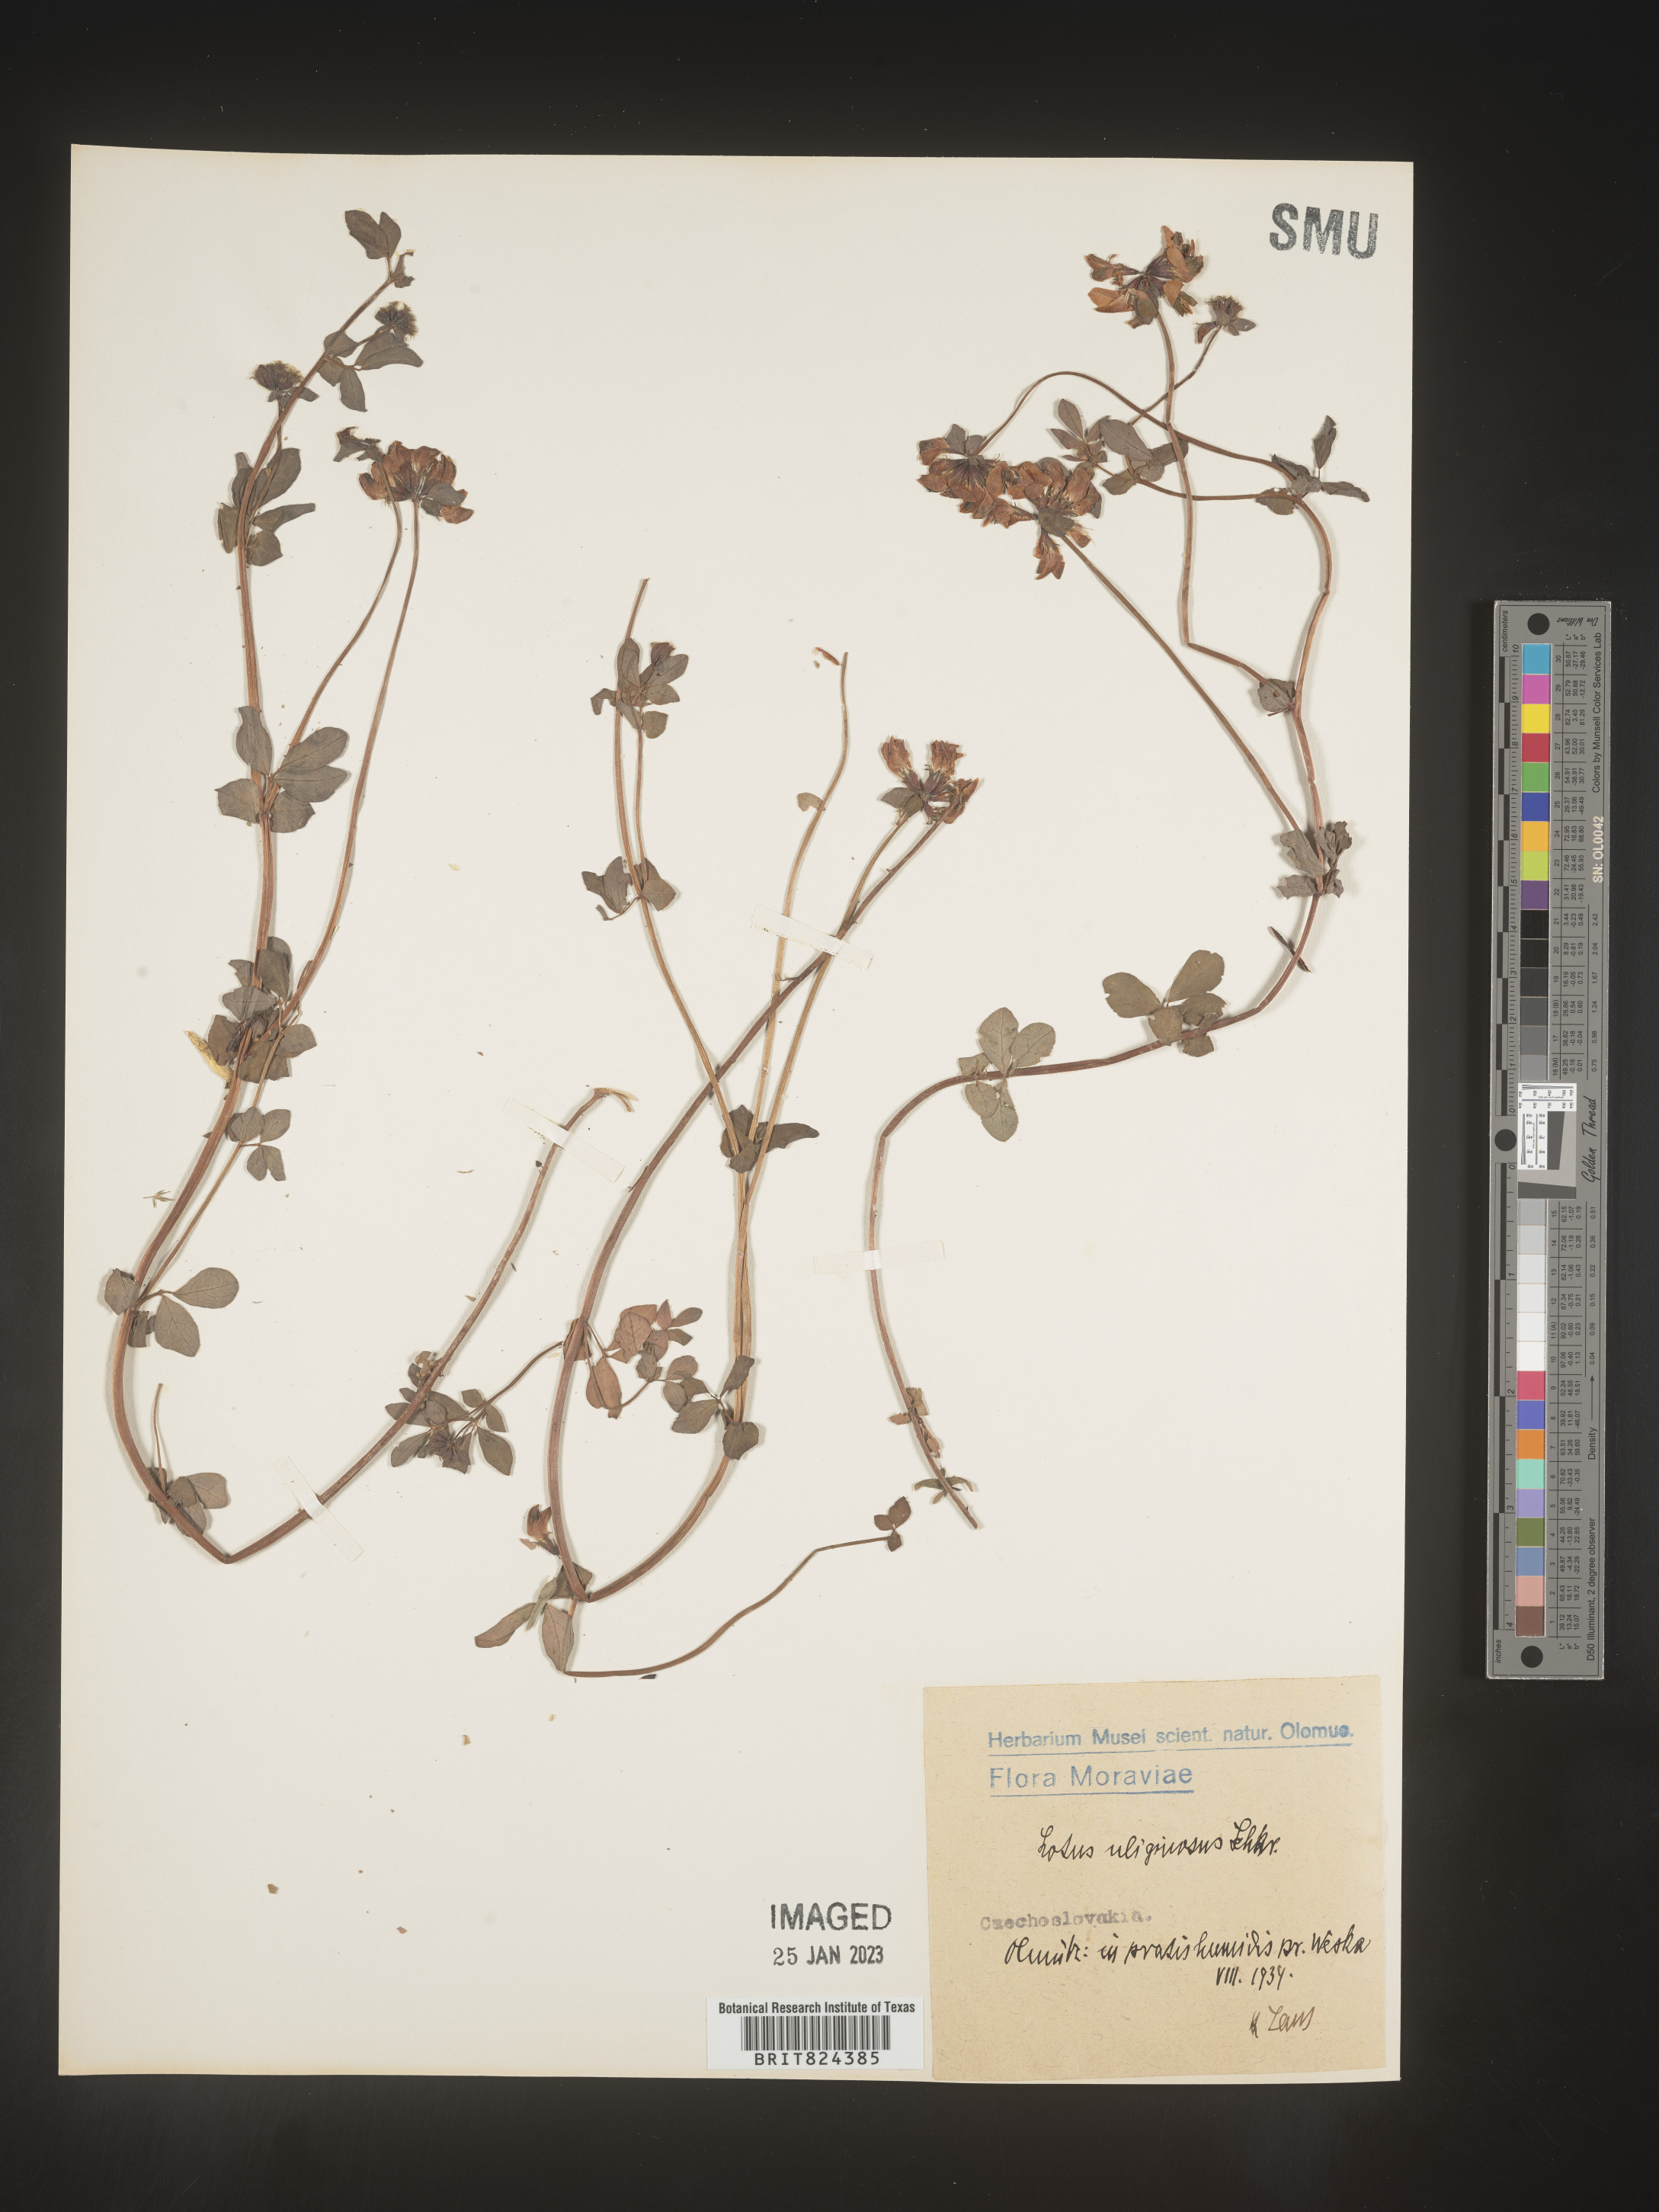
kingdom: Plantae
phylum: Tracheophyta
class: Magnoliopsida
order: Fabales
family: Fabaceae
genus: Lotus
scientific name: Lotus
